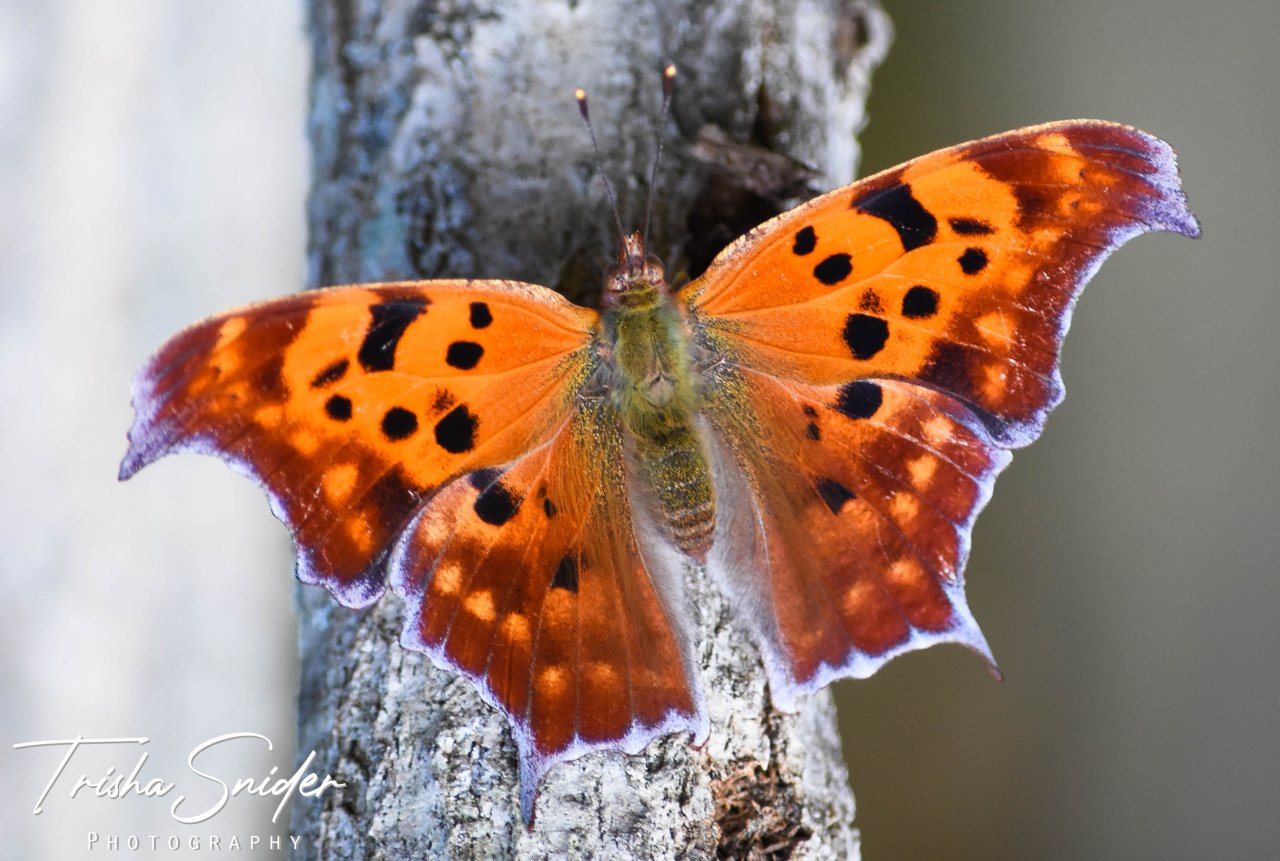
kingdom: Animalia
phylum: Arthropoda
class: Insecta
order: Lepidoptera
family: Nymphalidae
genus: Polygonia
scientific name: Polygonia interrogationis
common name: Question Mark
